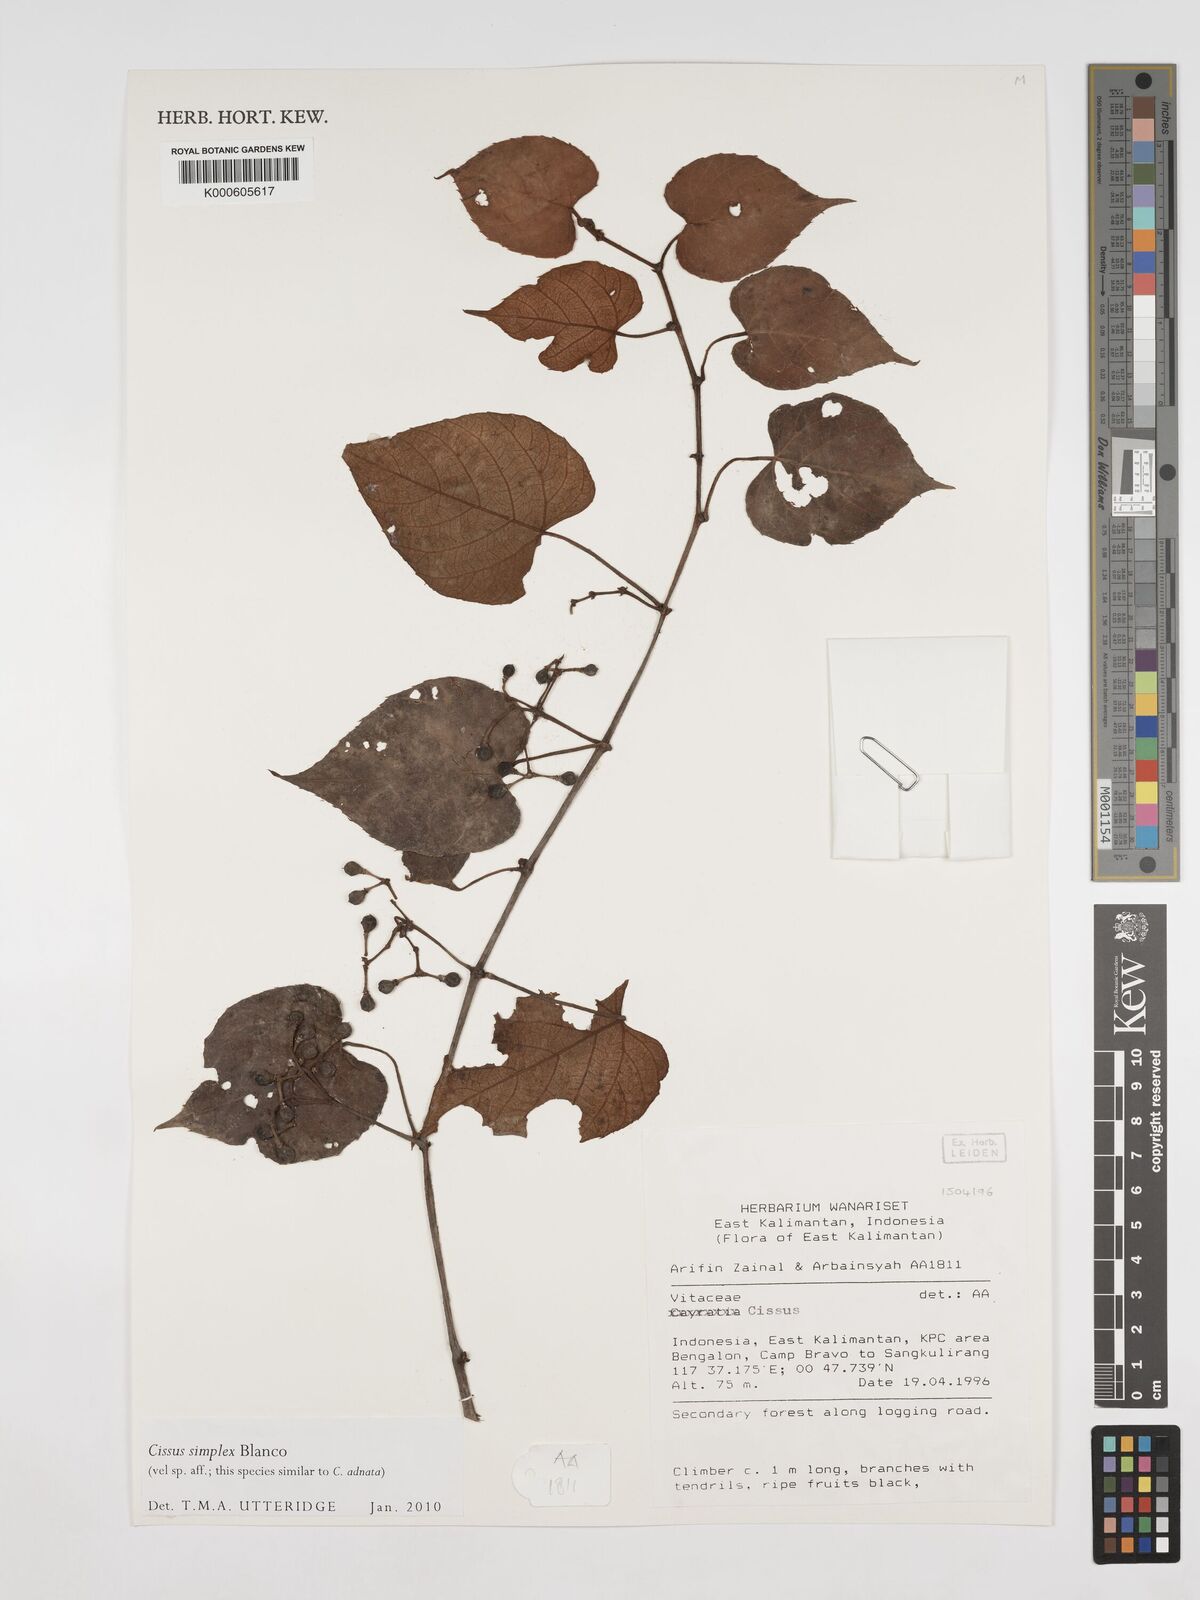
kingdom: Plantae
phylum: Tracheophyta
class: Magnoliopsida
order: Vitales
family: Vitaceae
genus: Cissus
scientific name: Cissus aristata
